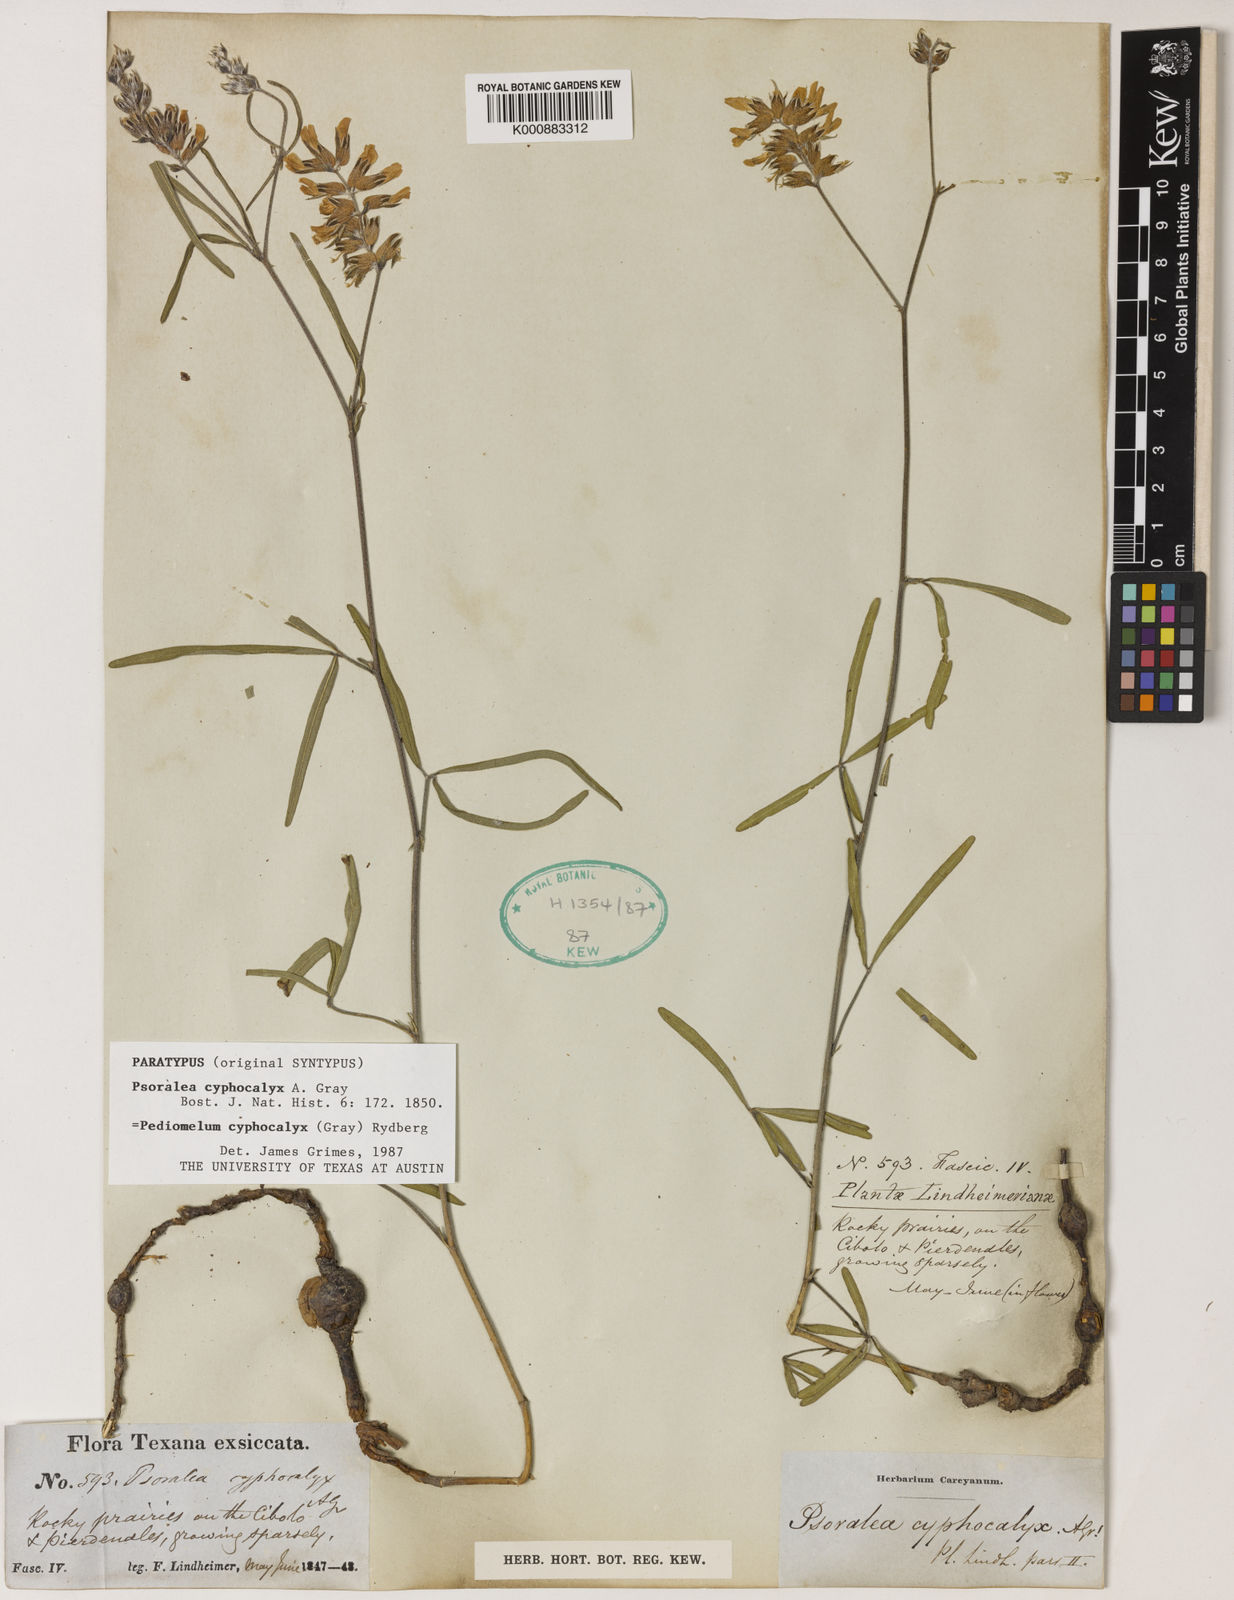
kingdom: Plantae
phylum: Tracheophyta
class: Magnoliopsida
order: Fabales
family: Fabaceae
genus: Pediomelum
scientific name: Pediomelum cyphocalyx
